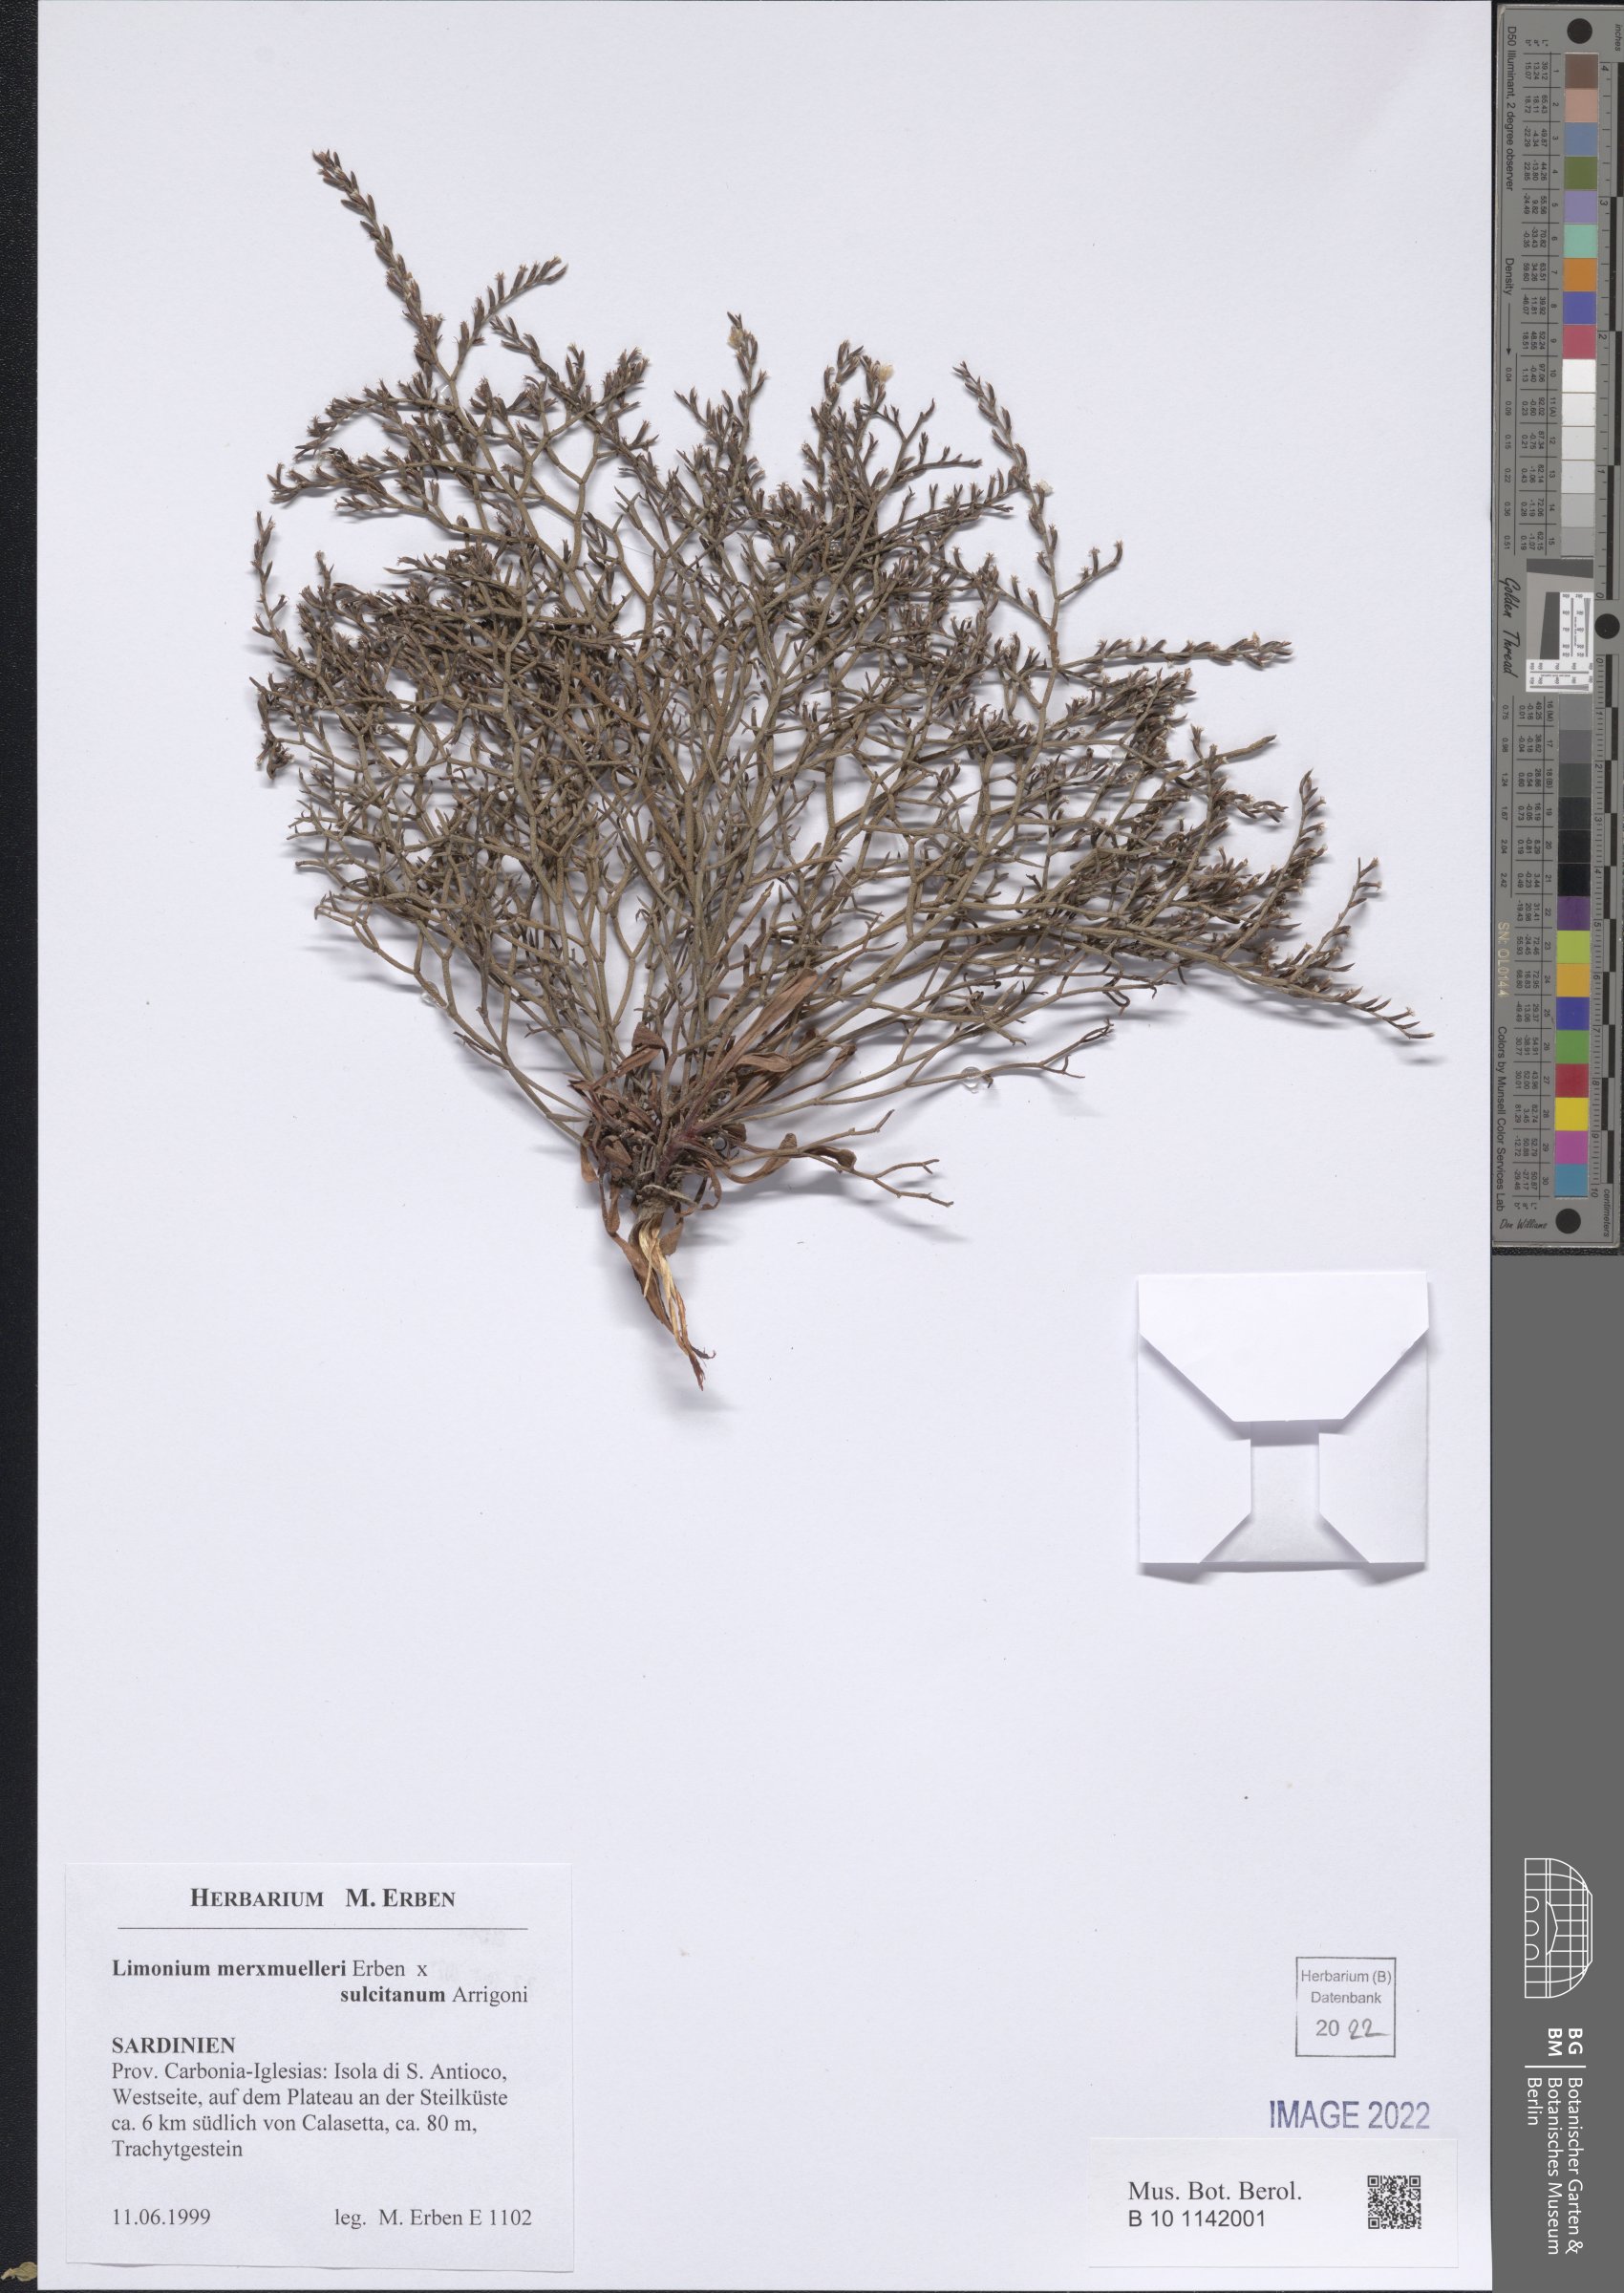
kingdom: Plantae
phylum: Tracheophyta
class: Magnoliopsida
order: Caryophyllales
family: Plumbaginaceae
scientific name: Plumbaginaceae
